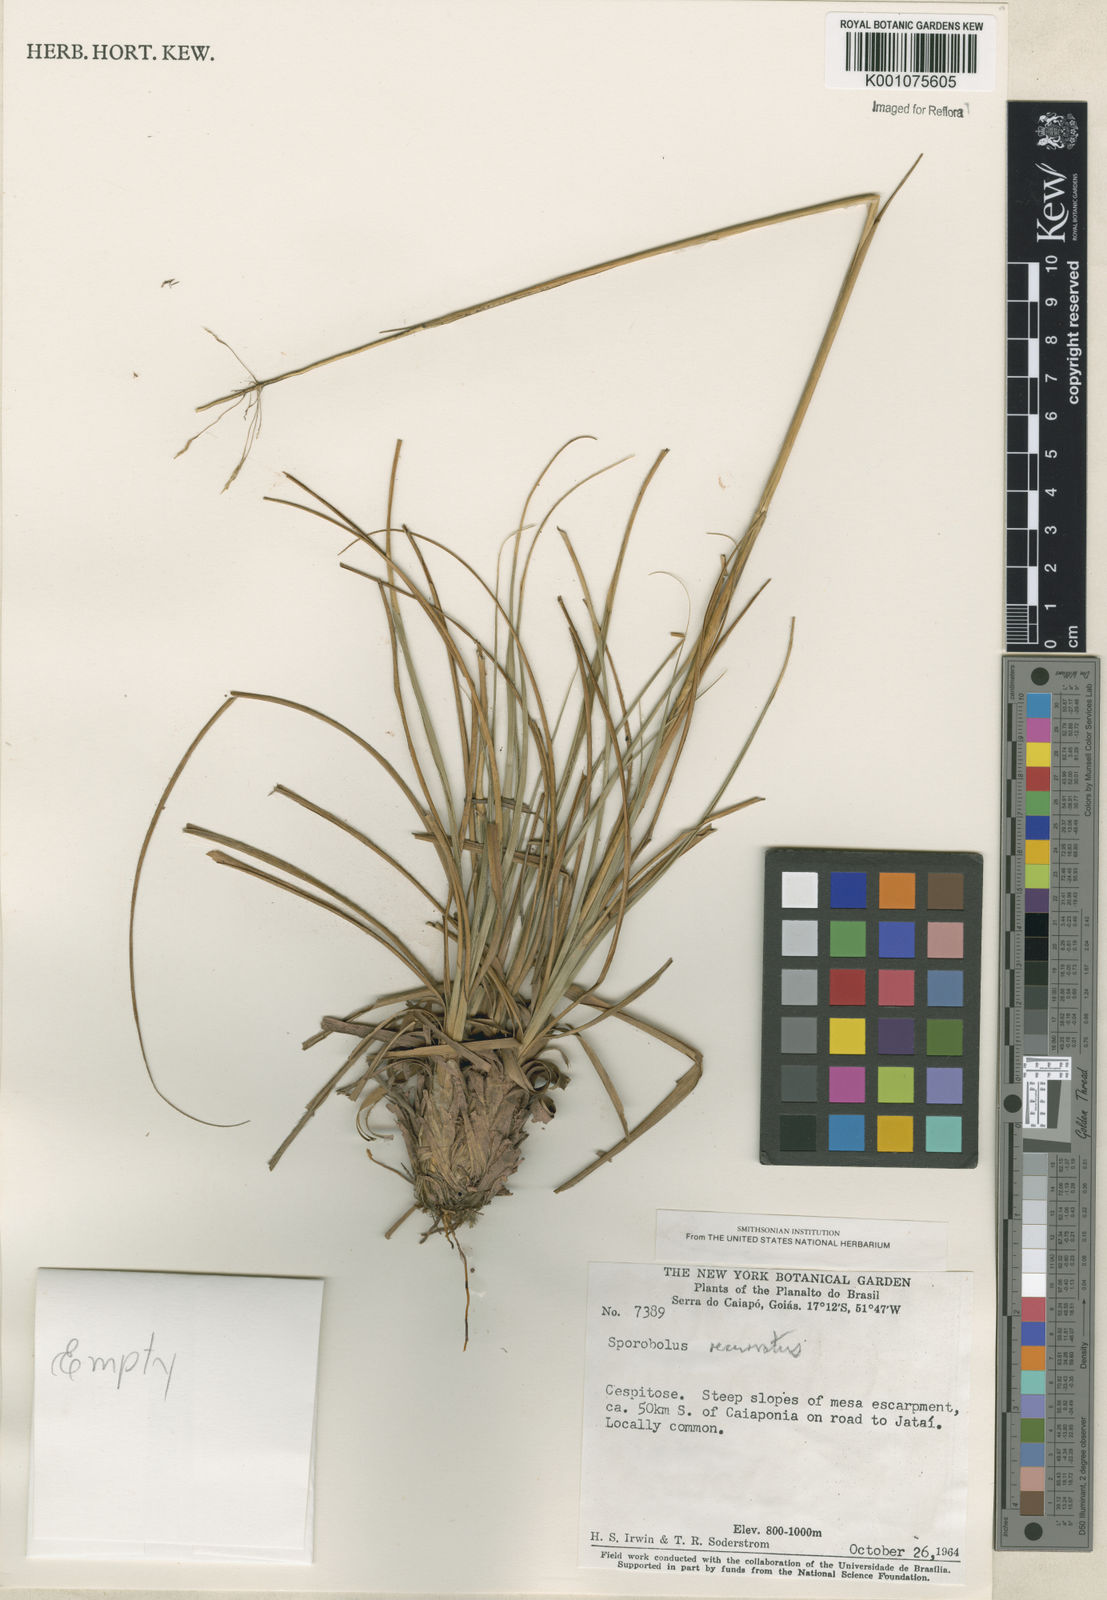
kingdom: Plantae
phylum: Tracheophyta
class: Liliopsida
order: Poales
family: Poaceae
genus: Sporobolus
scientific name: Sporobolus recurvatus
